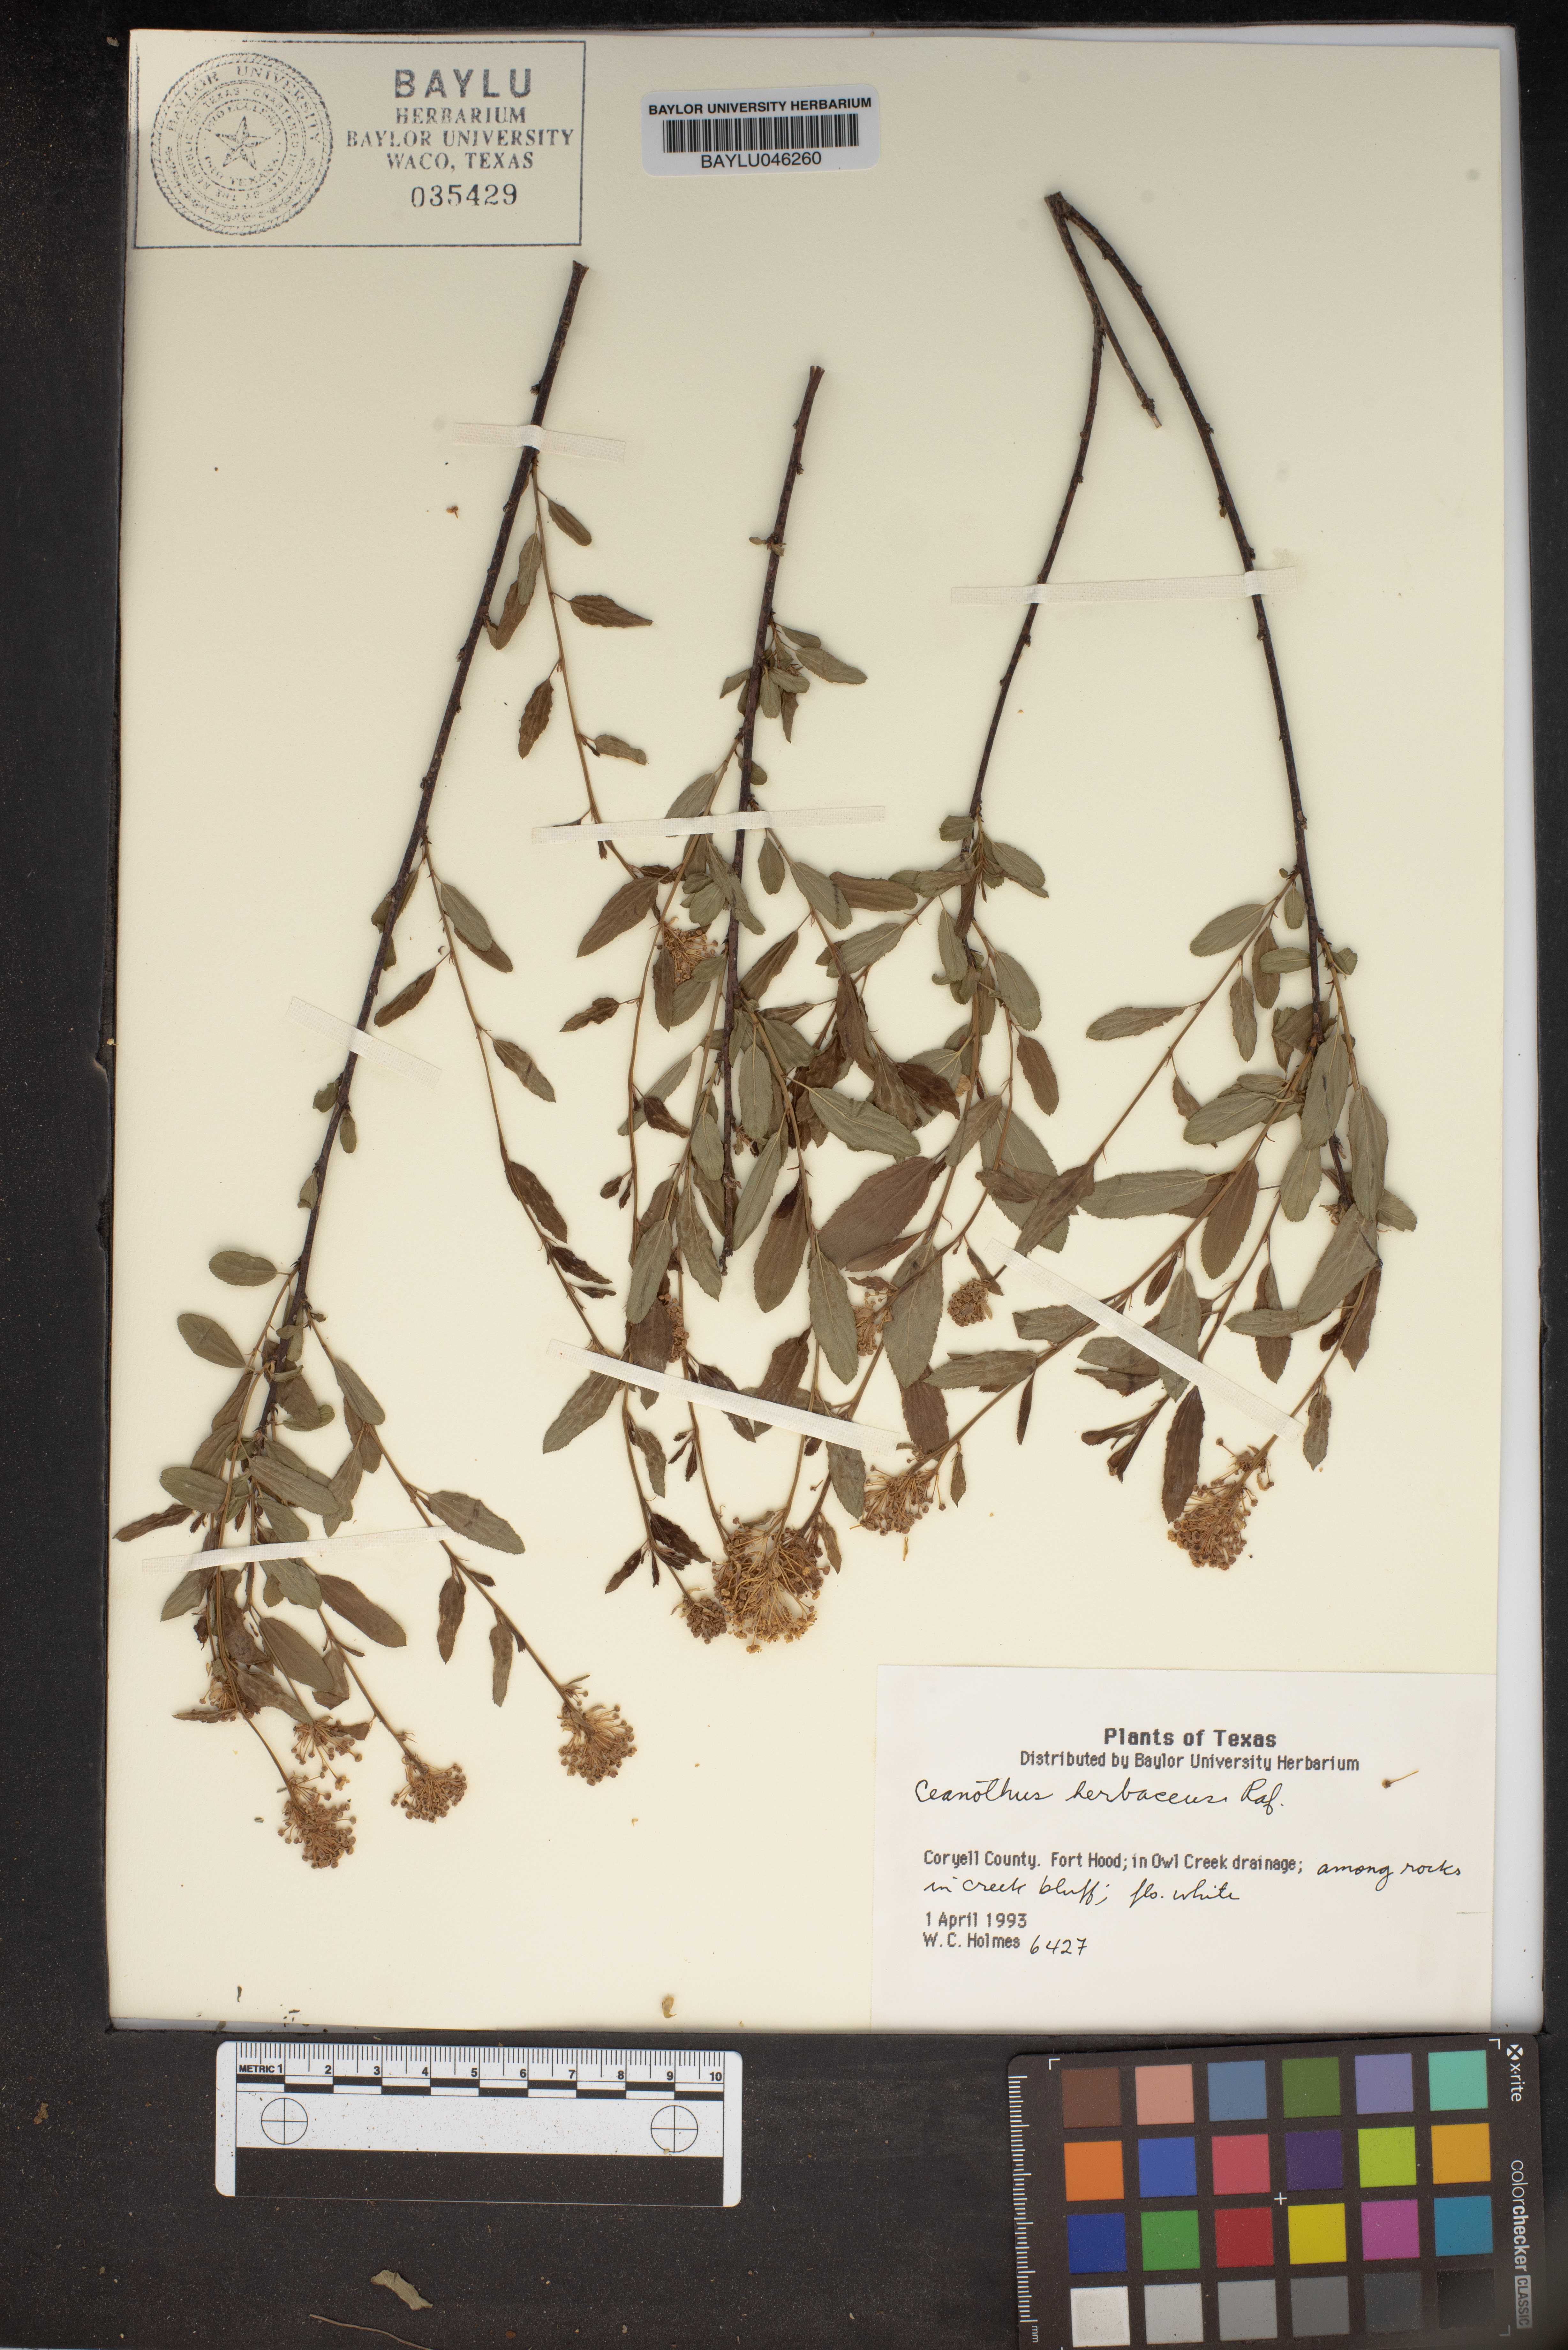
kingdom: Plantae
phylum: Tracheophyta
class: Magnoliopsida
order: Rosales
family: Rhamnaceae
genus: Ceanothus
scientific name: Ceanothus herbaceus
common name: Inland ceanothus
